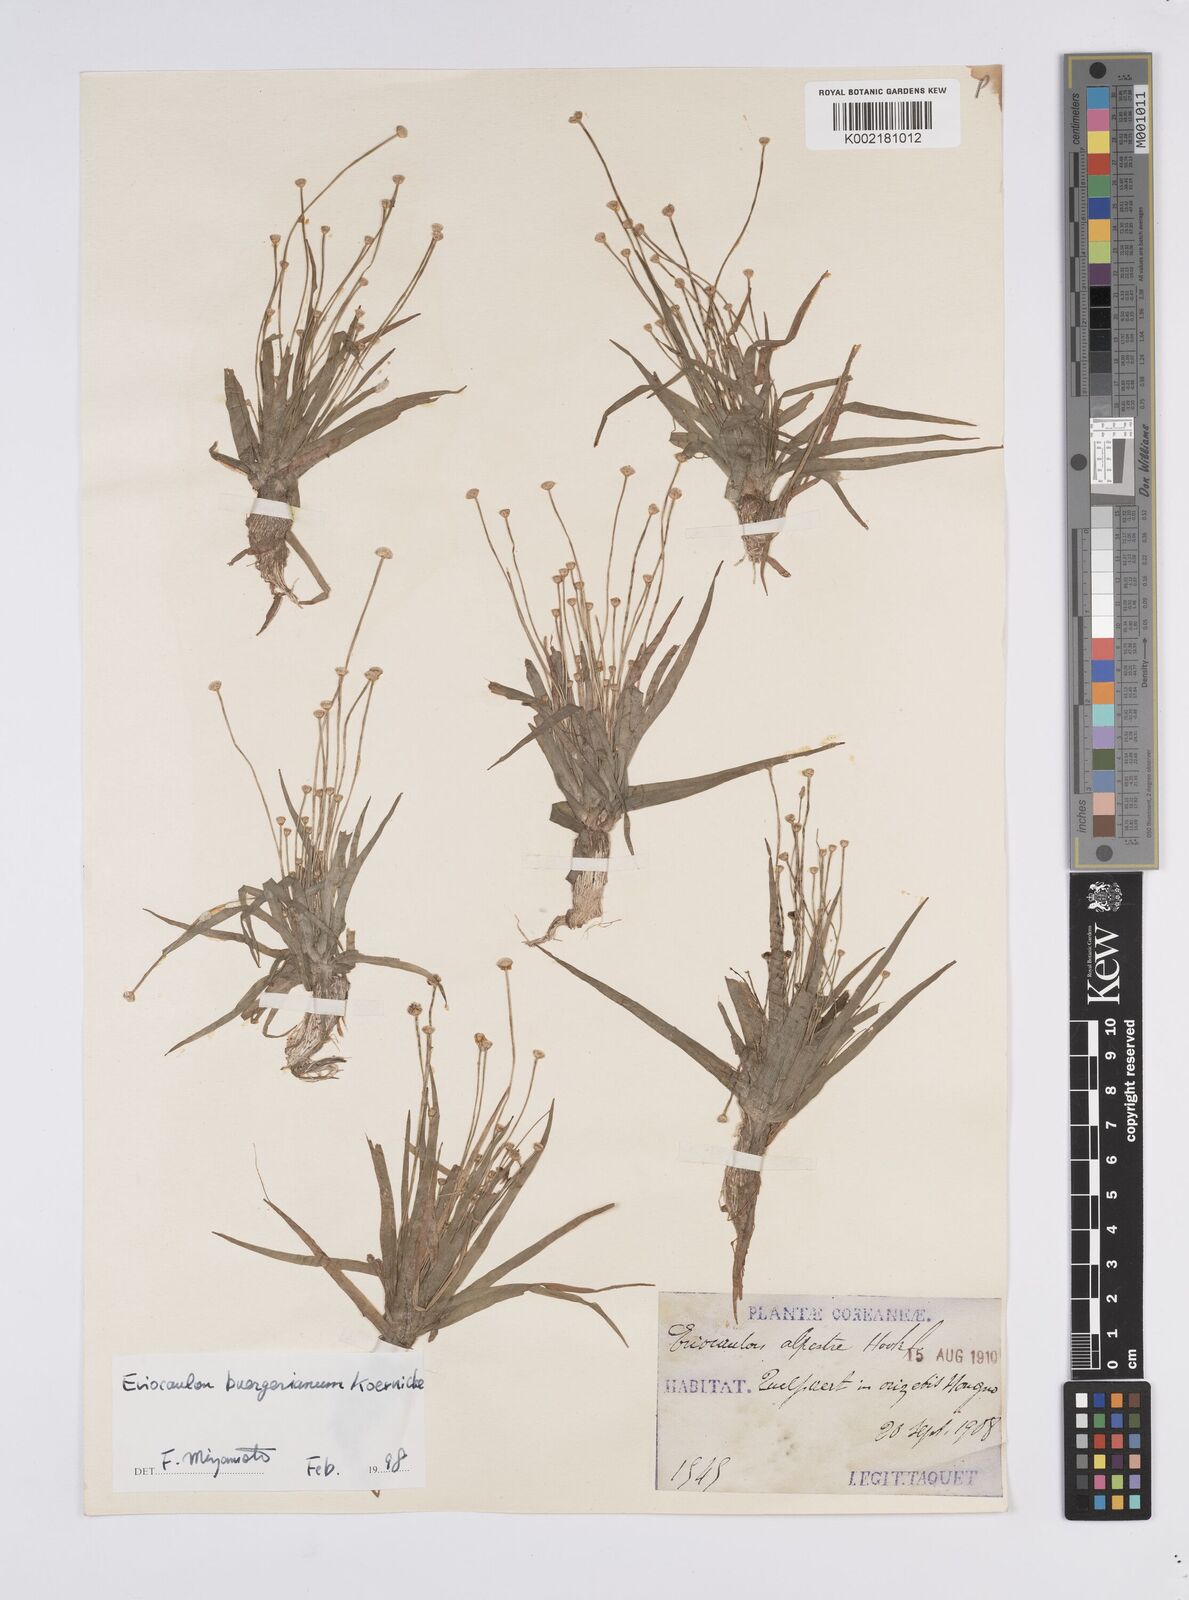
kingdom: Plantae
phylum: Tracheophyta
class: Liliopsida
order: Poales
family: Eriocaulaceae
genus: Eriocaulon
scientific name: Eriocaulon buergerianum
